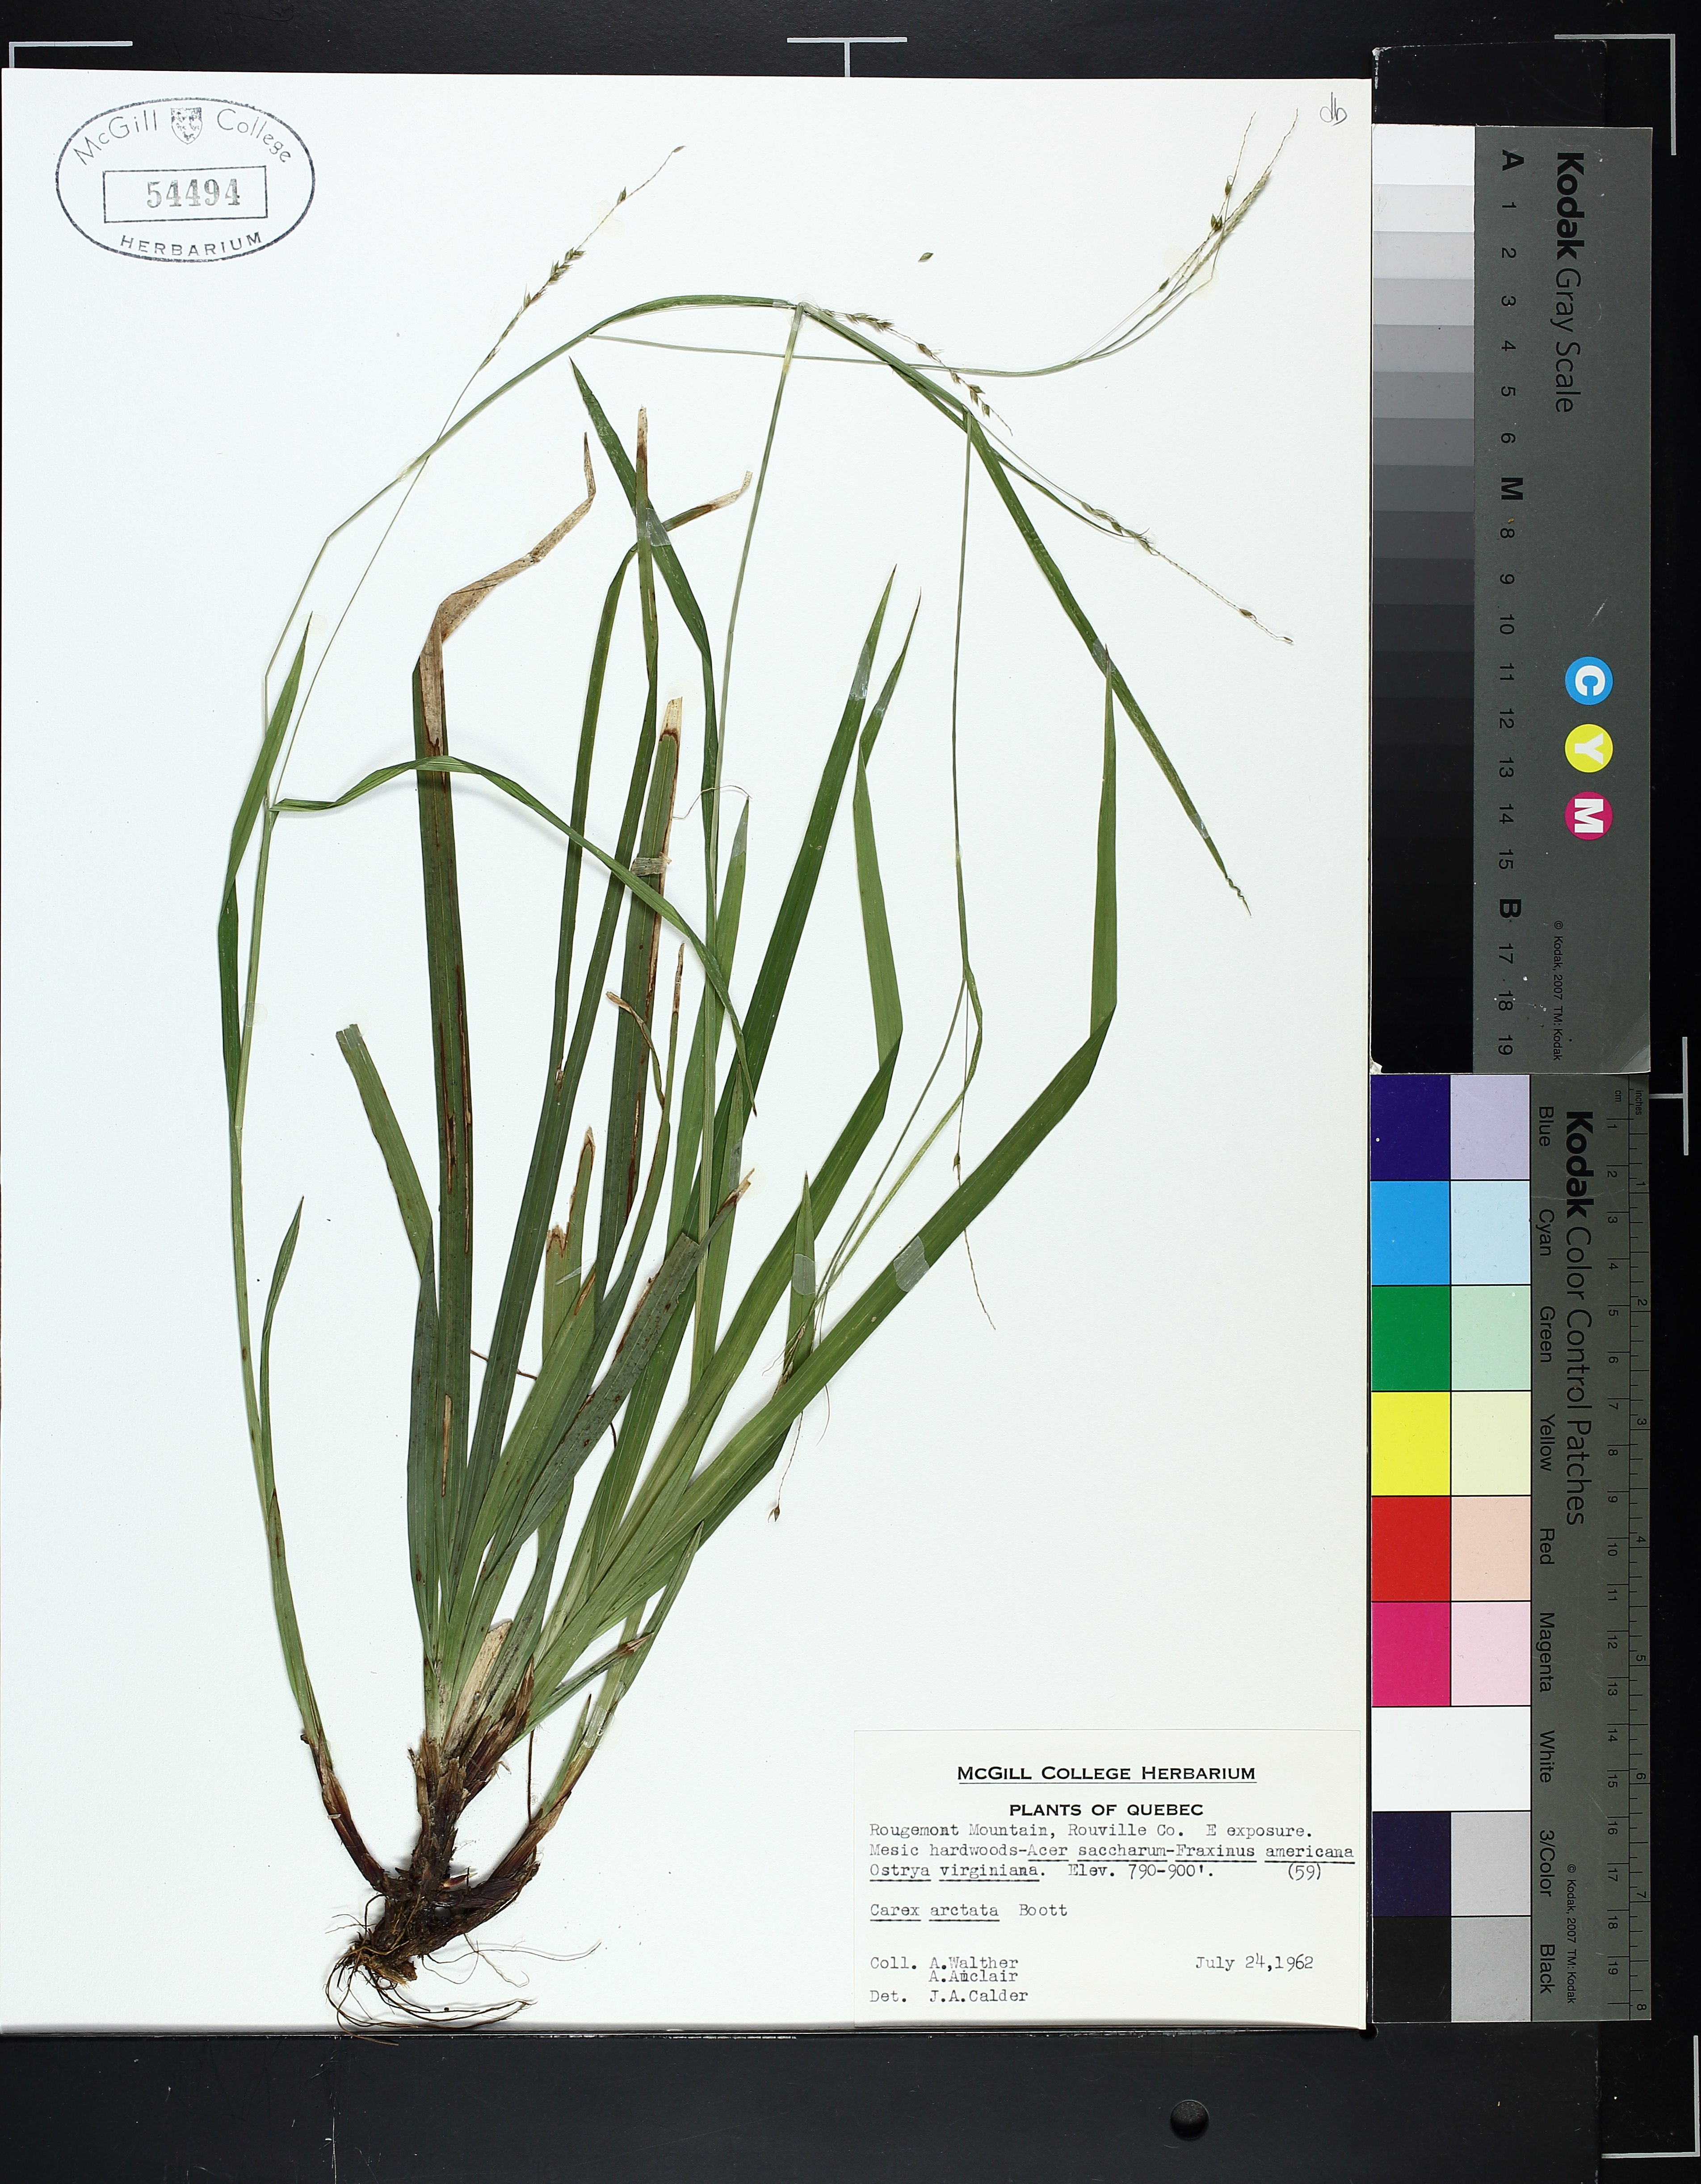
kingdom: Plantae
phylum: Tracheophyta
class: Liliopsida
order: Poales
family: Cyperaceae
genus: Carex
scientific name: Carex arctata
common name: Black sedge
